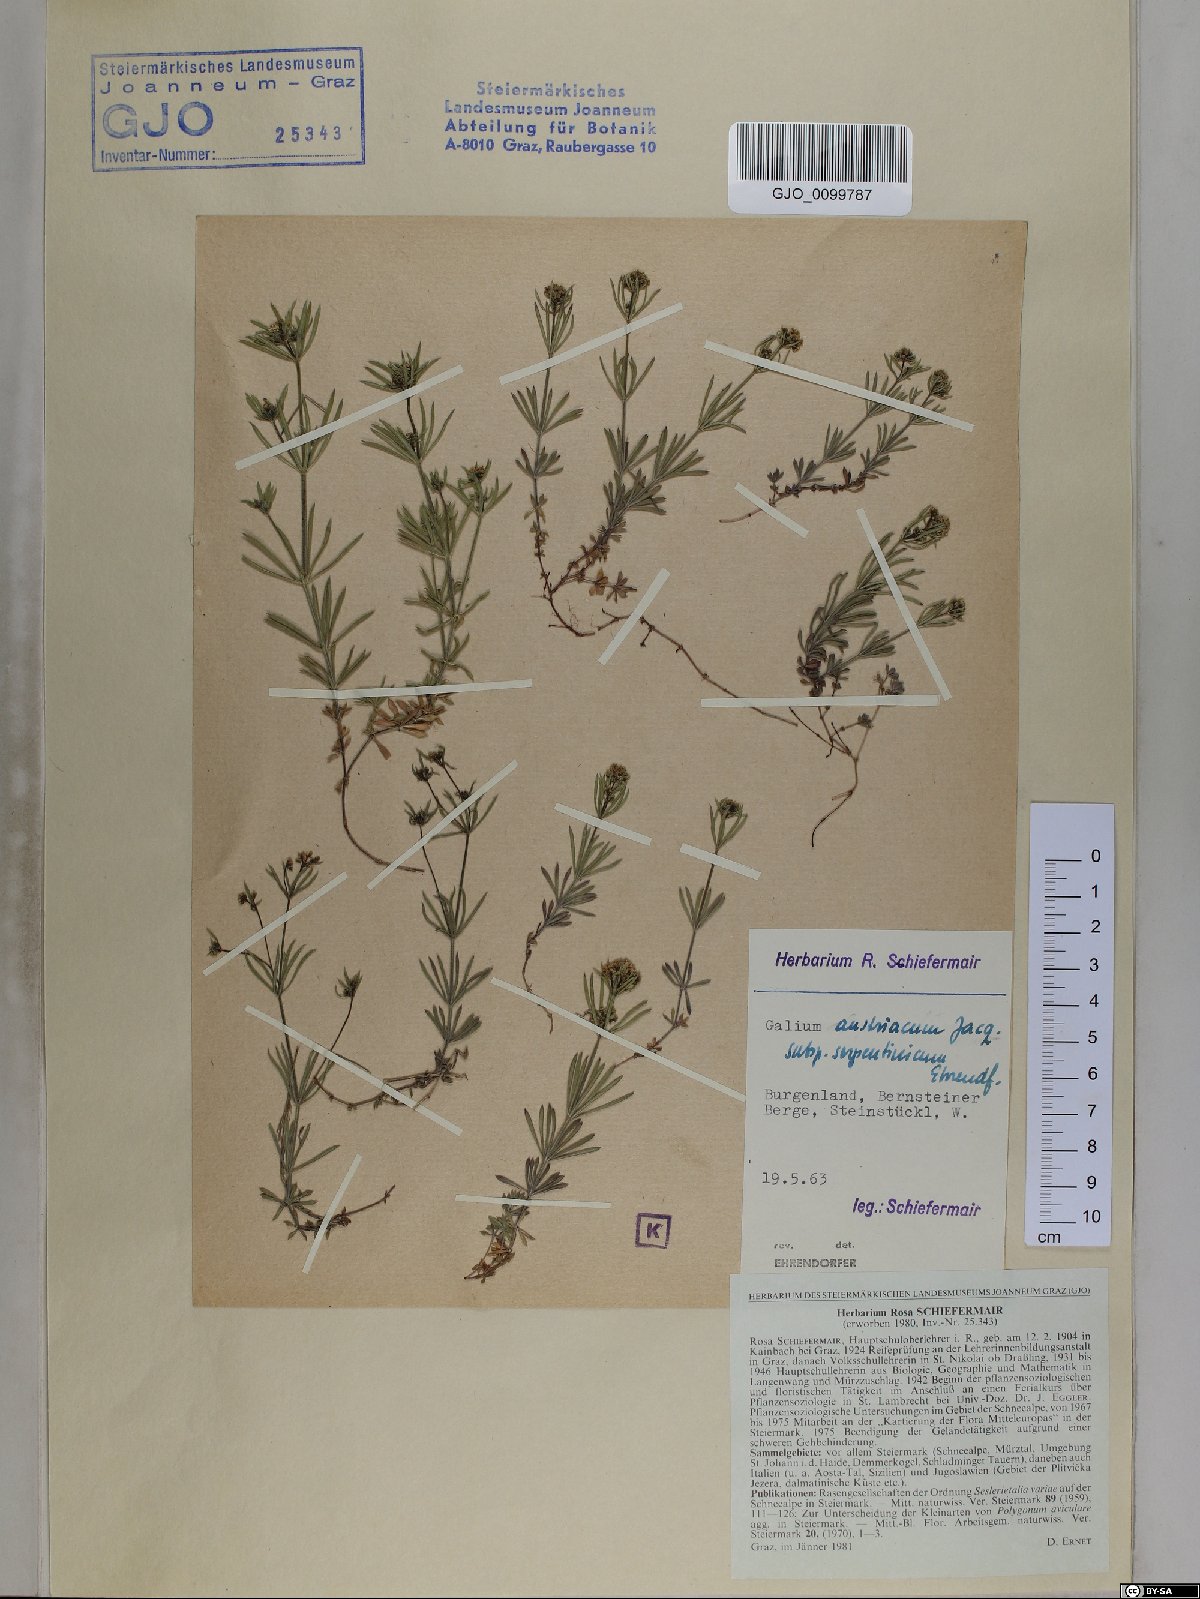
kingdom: Plantae
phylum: Tracheophyta
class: Magnoliopsida
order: Gentianales
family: Rubiaceae
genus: Galium
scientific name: Galium austriacum
